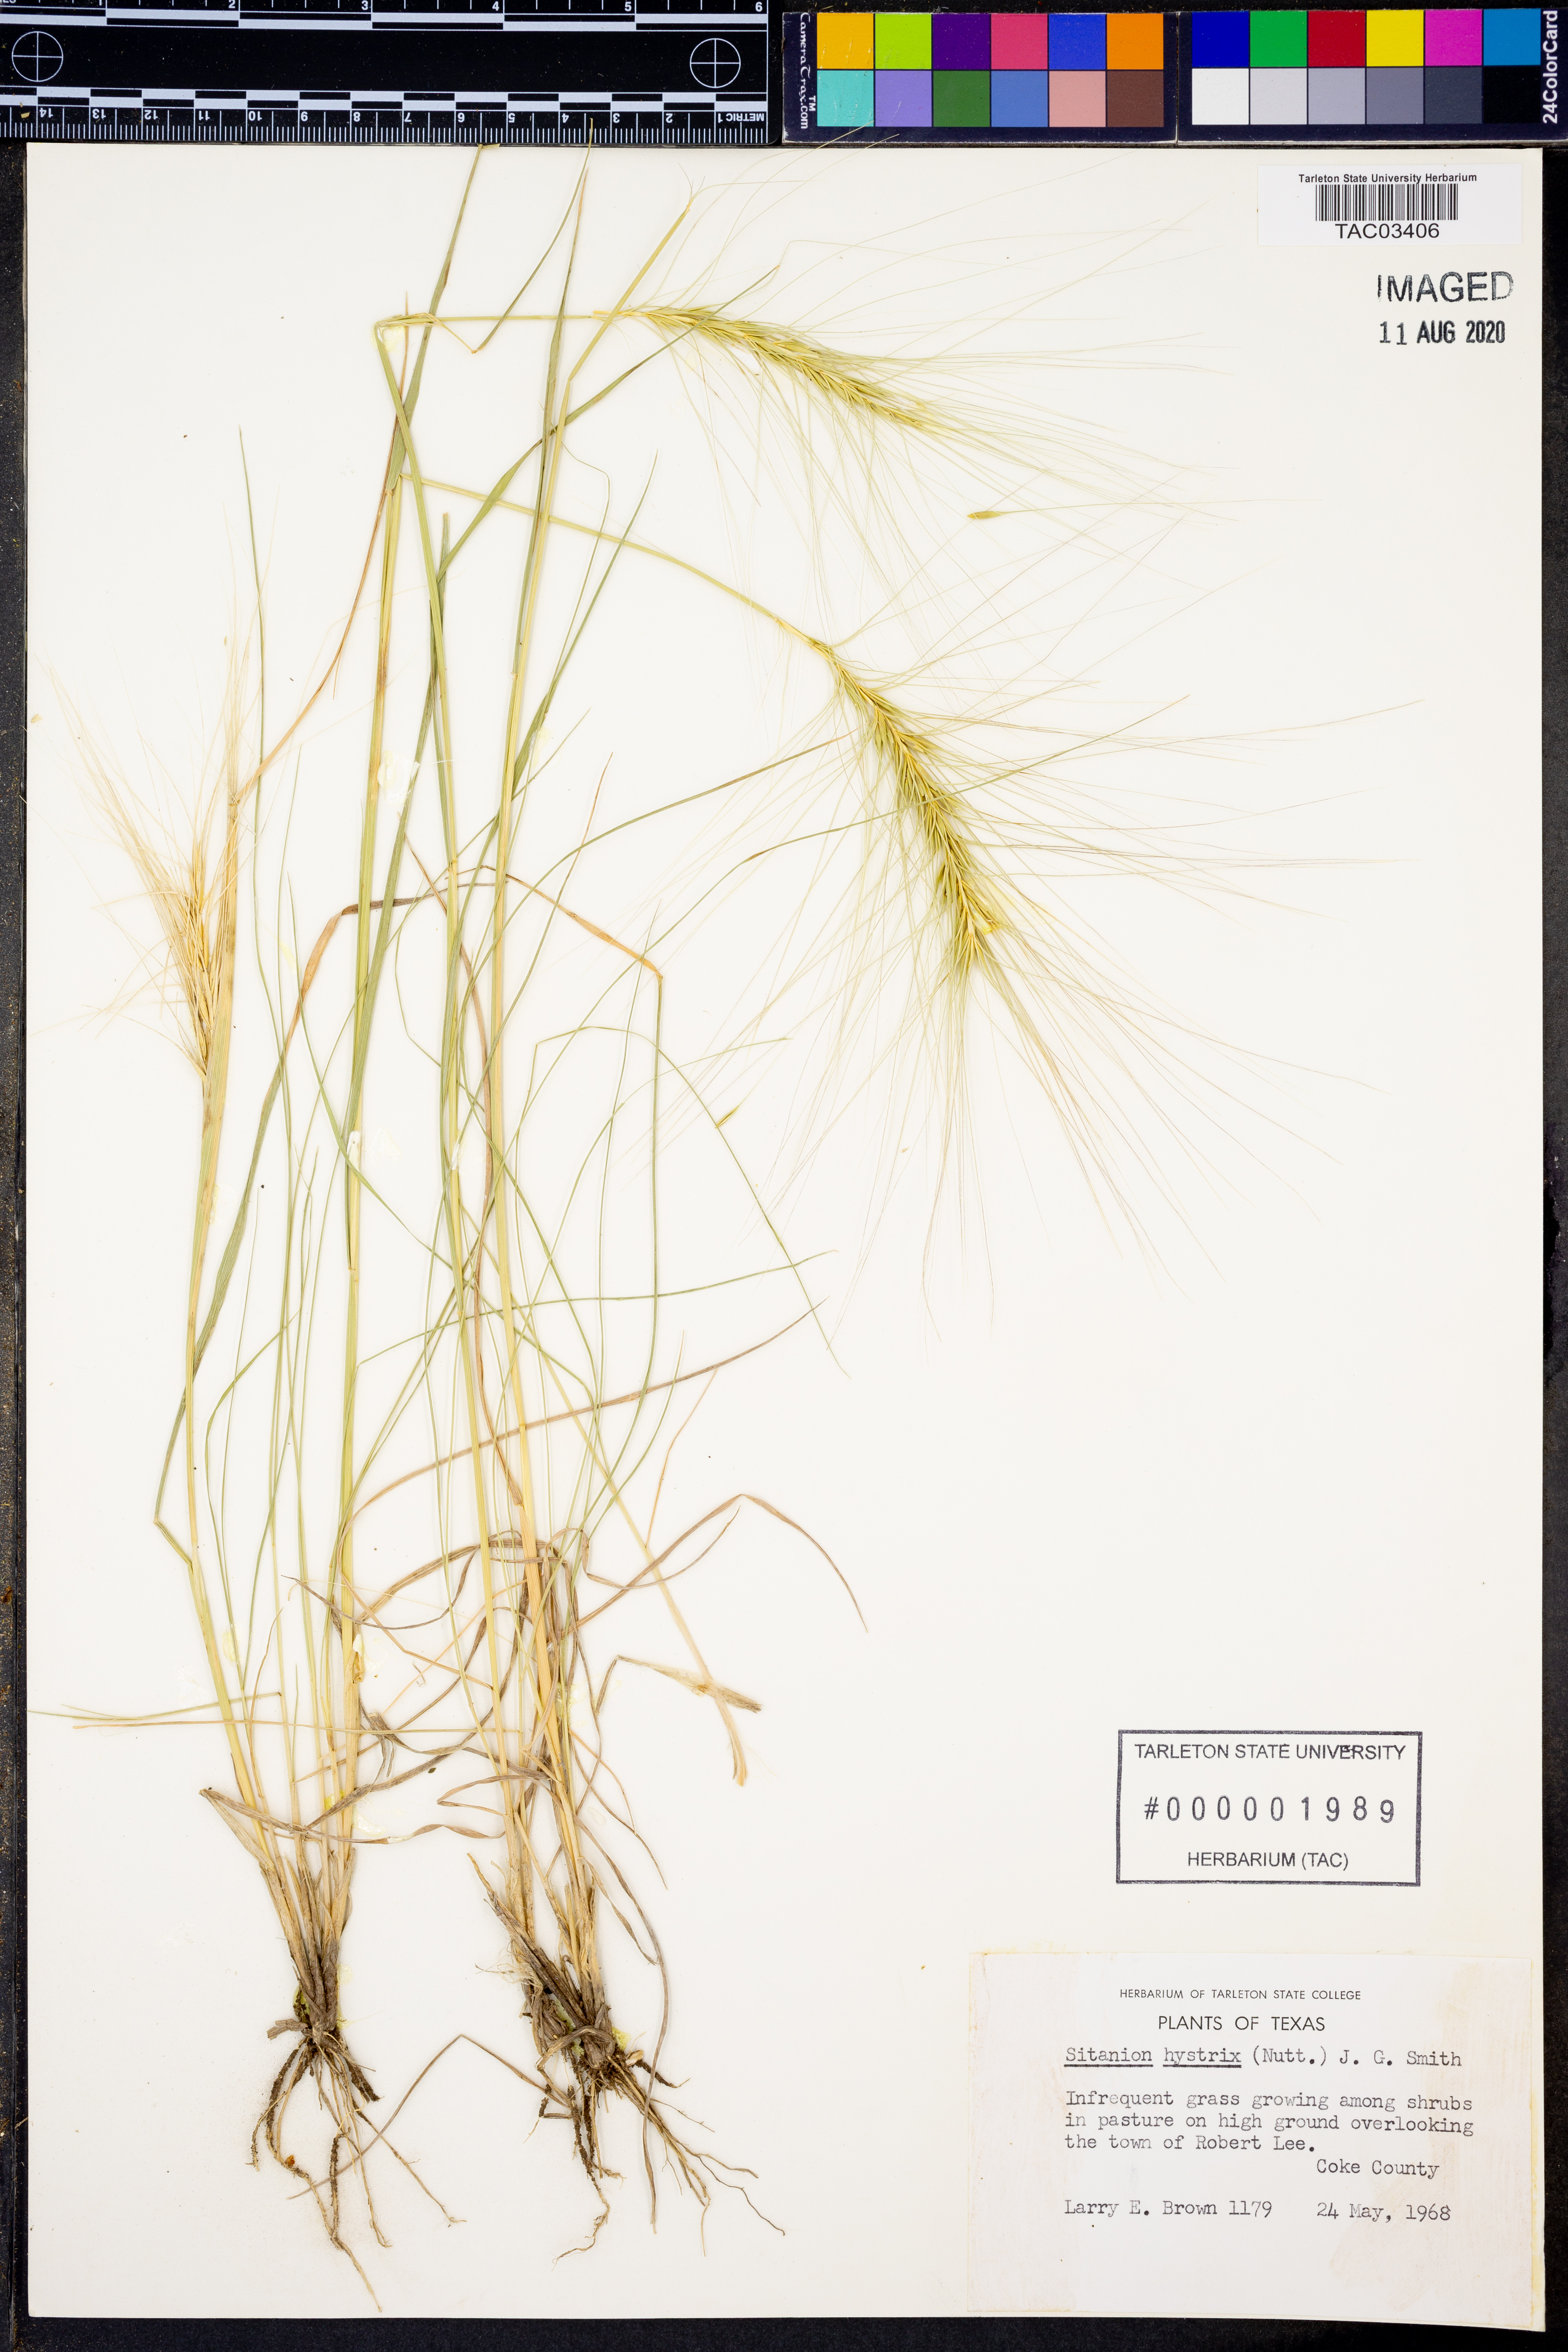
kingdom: Plantae
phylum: Tracheophyta
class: Liliopsida
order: Poales
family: Poaceae
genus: Elymus
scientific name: Elymus elymoides
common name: Bottlebrush squirreltail
